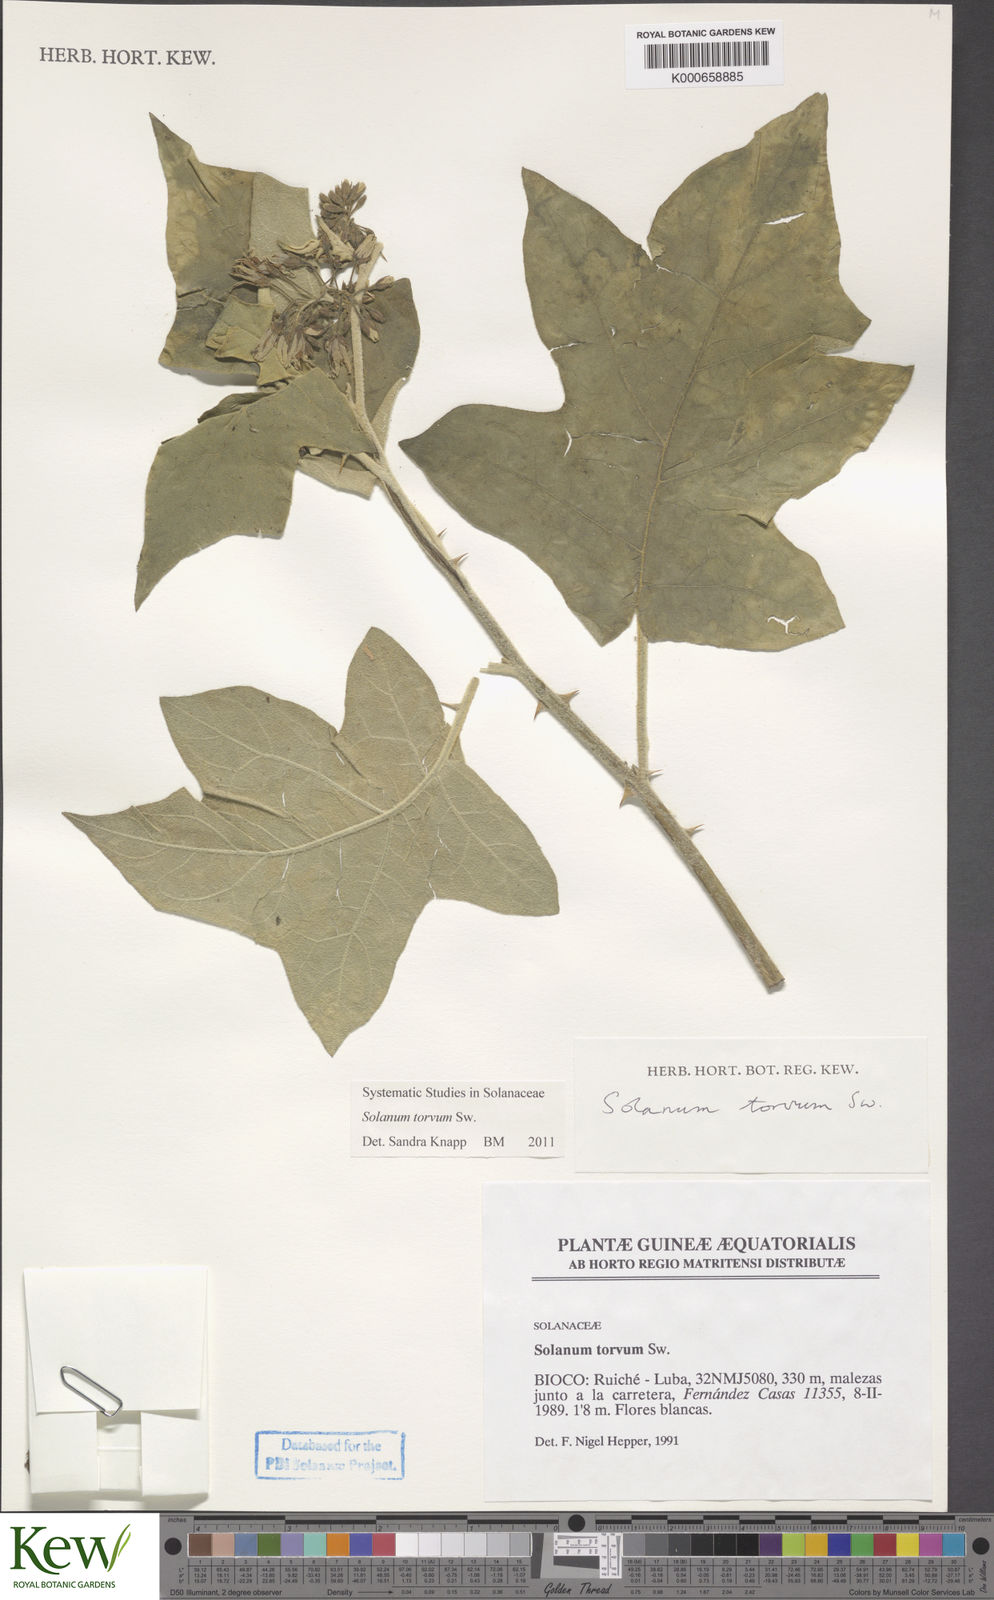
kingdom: Plantae
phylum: Tracheophyta
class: Magnoliopsida
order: Solanales
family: Solanaceae
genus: Solanum
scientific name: Solanum torvum
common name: Turkey berry
